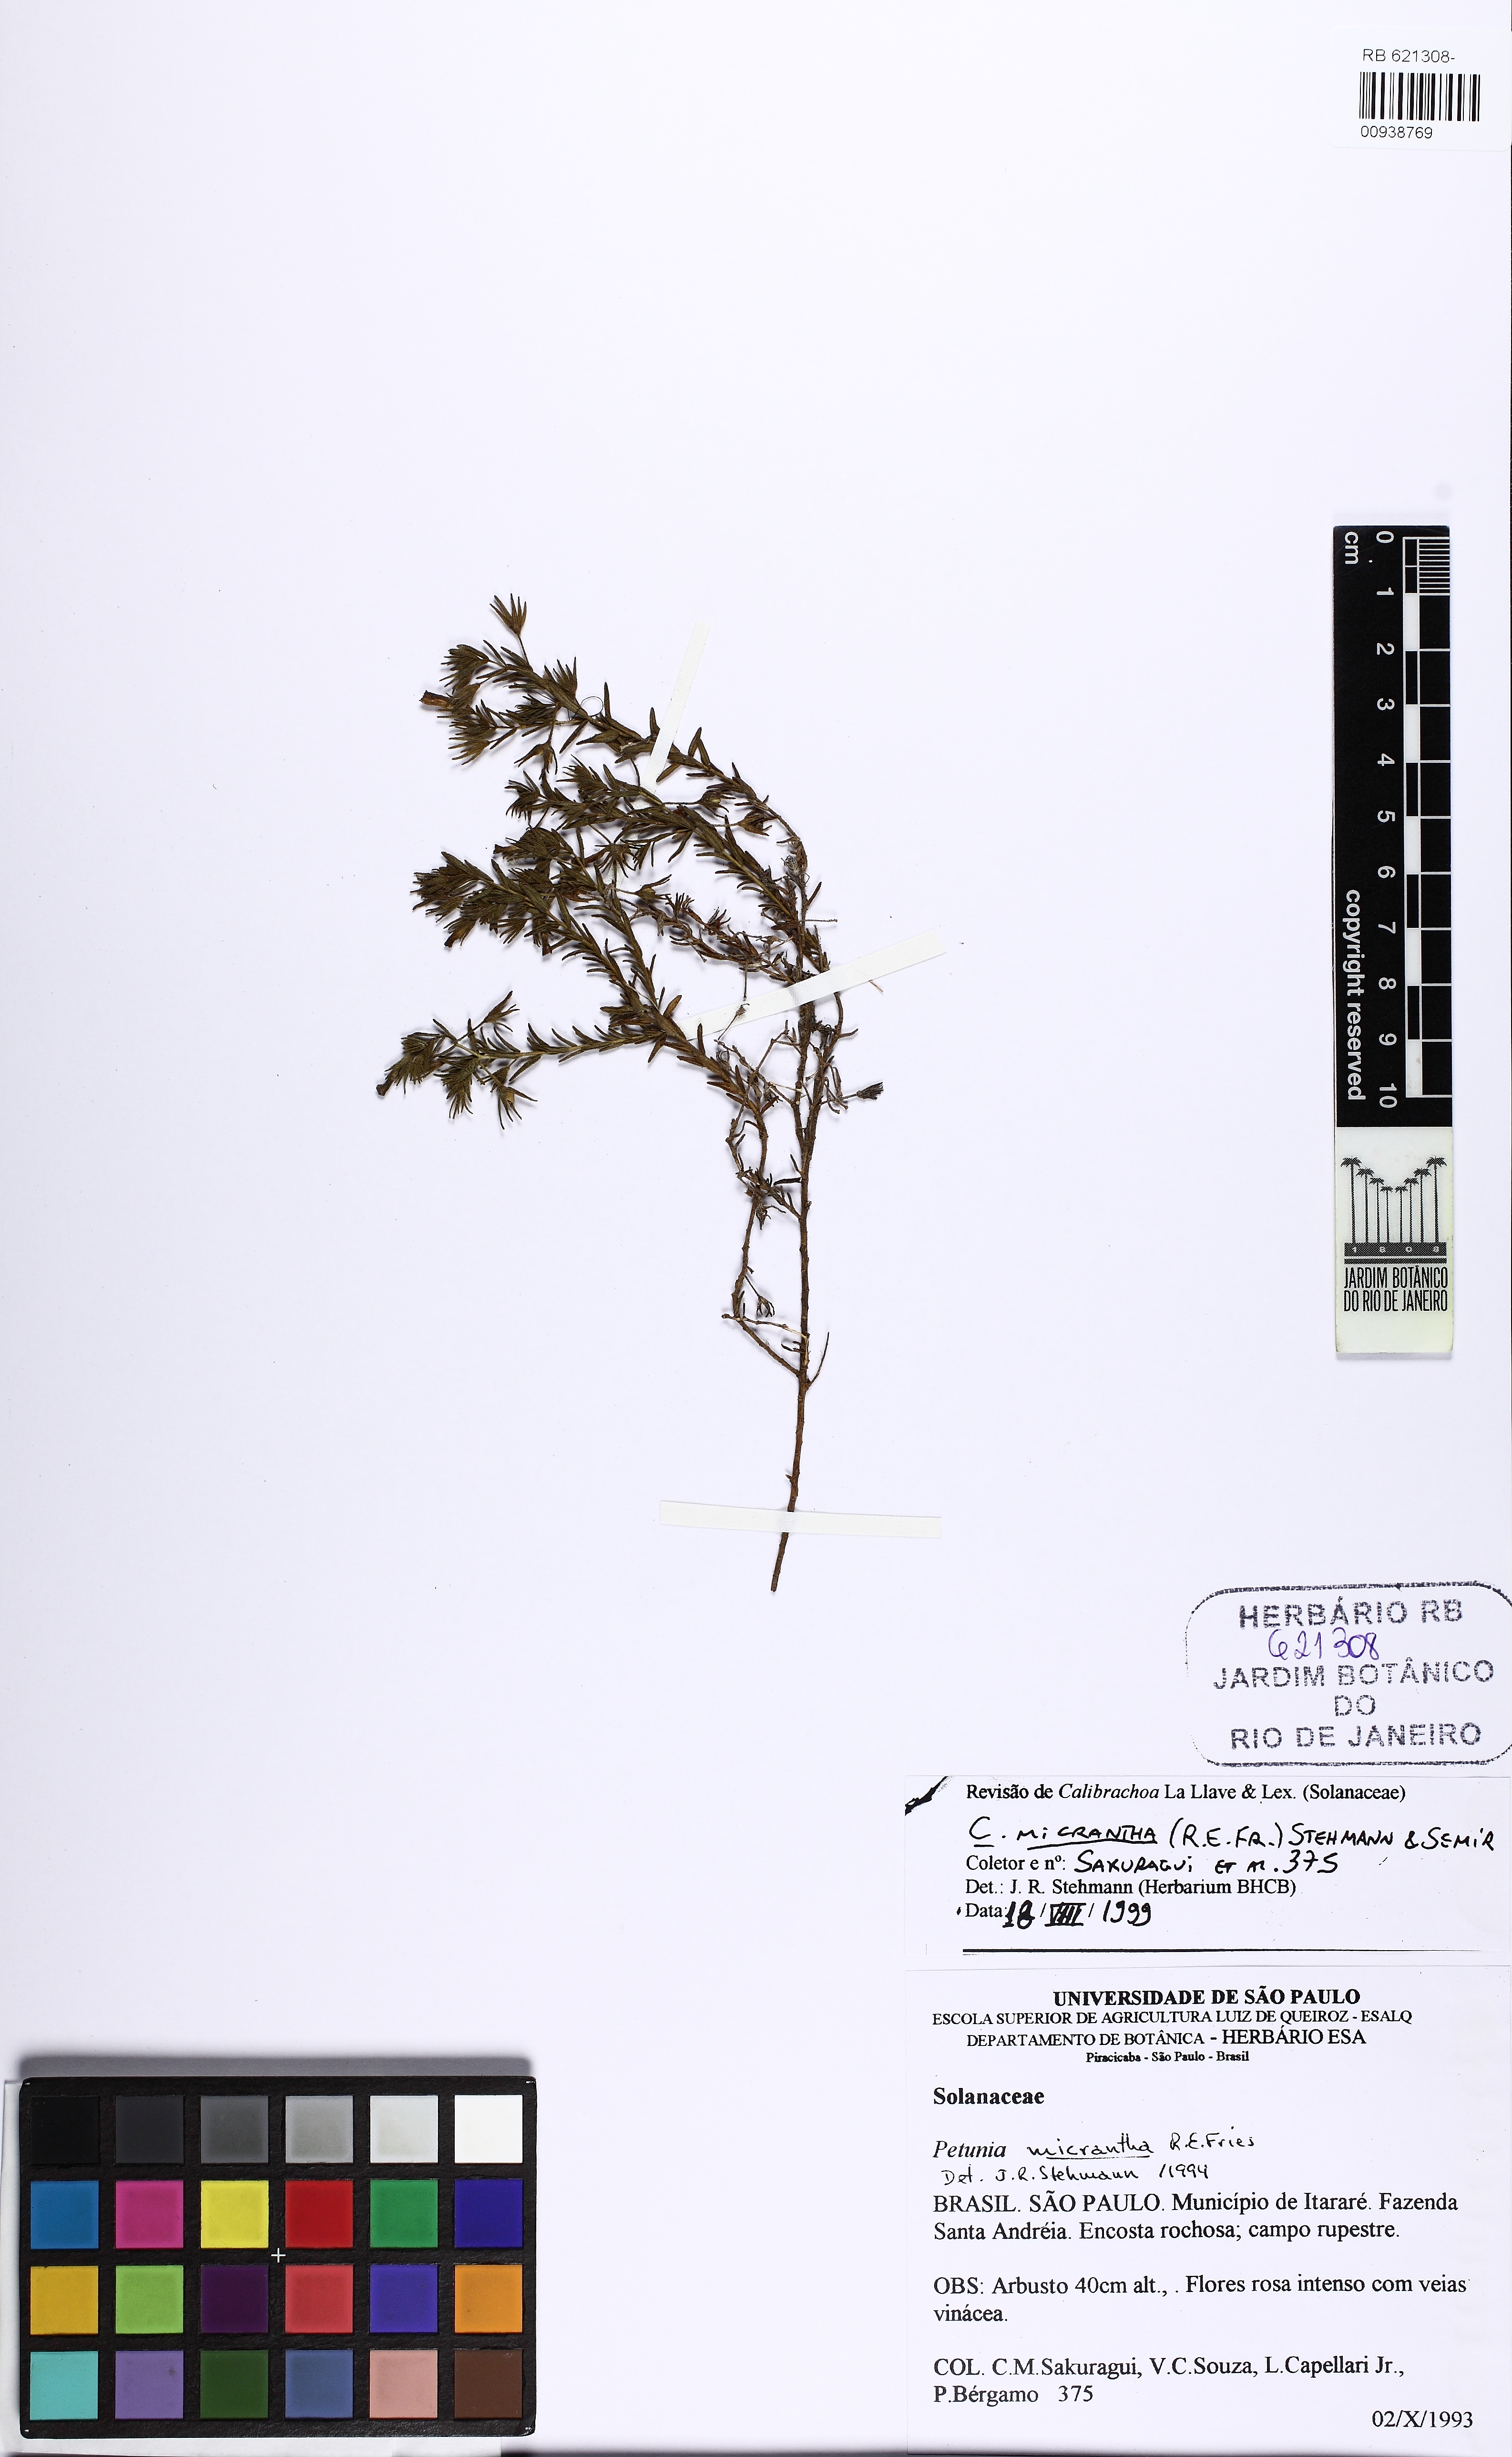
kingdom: Plantae
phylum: Tracheophyta
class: Magnoliopsida
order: Solanales
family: Solanaceae
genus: Calibrachoa
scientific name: Calibrachoa micrantha
